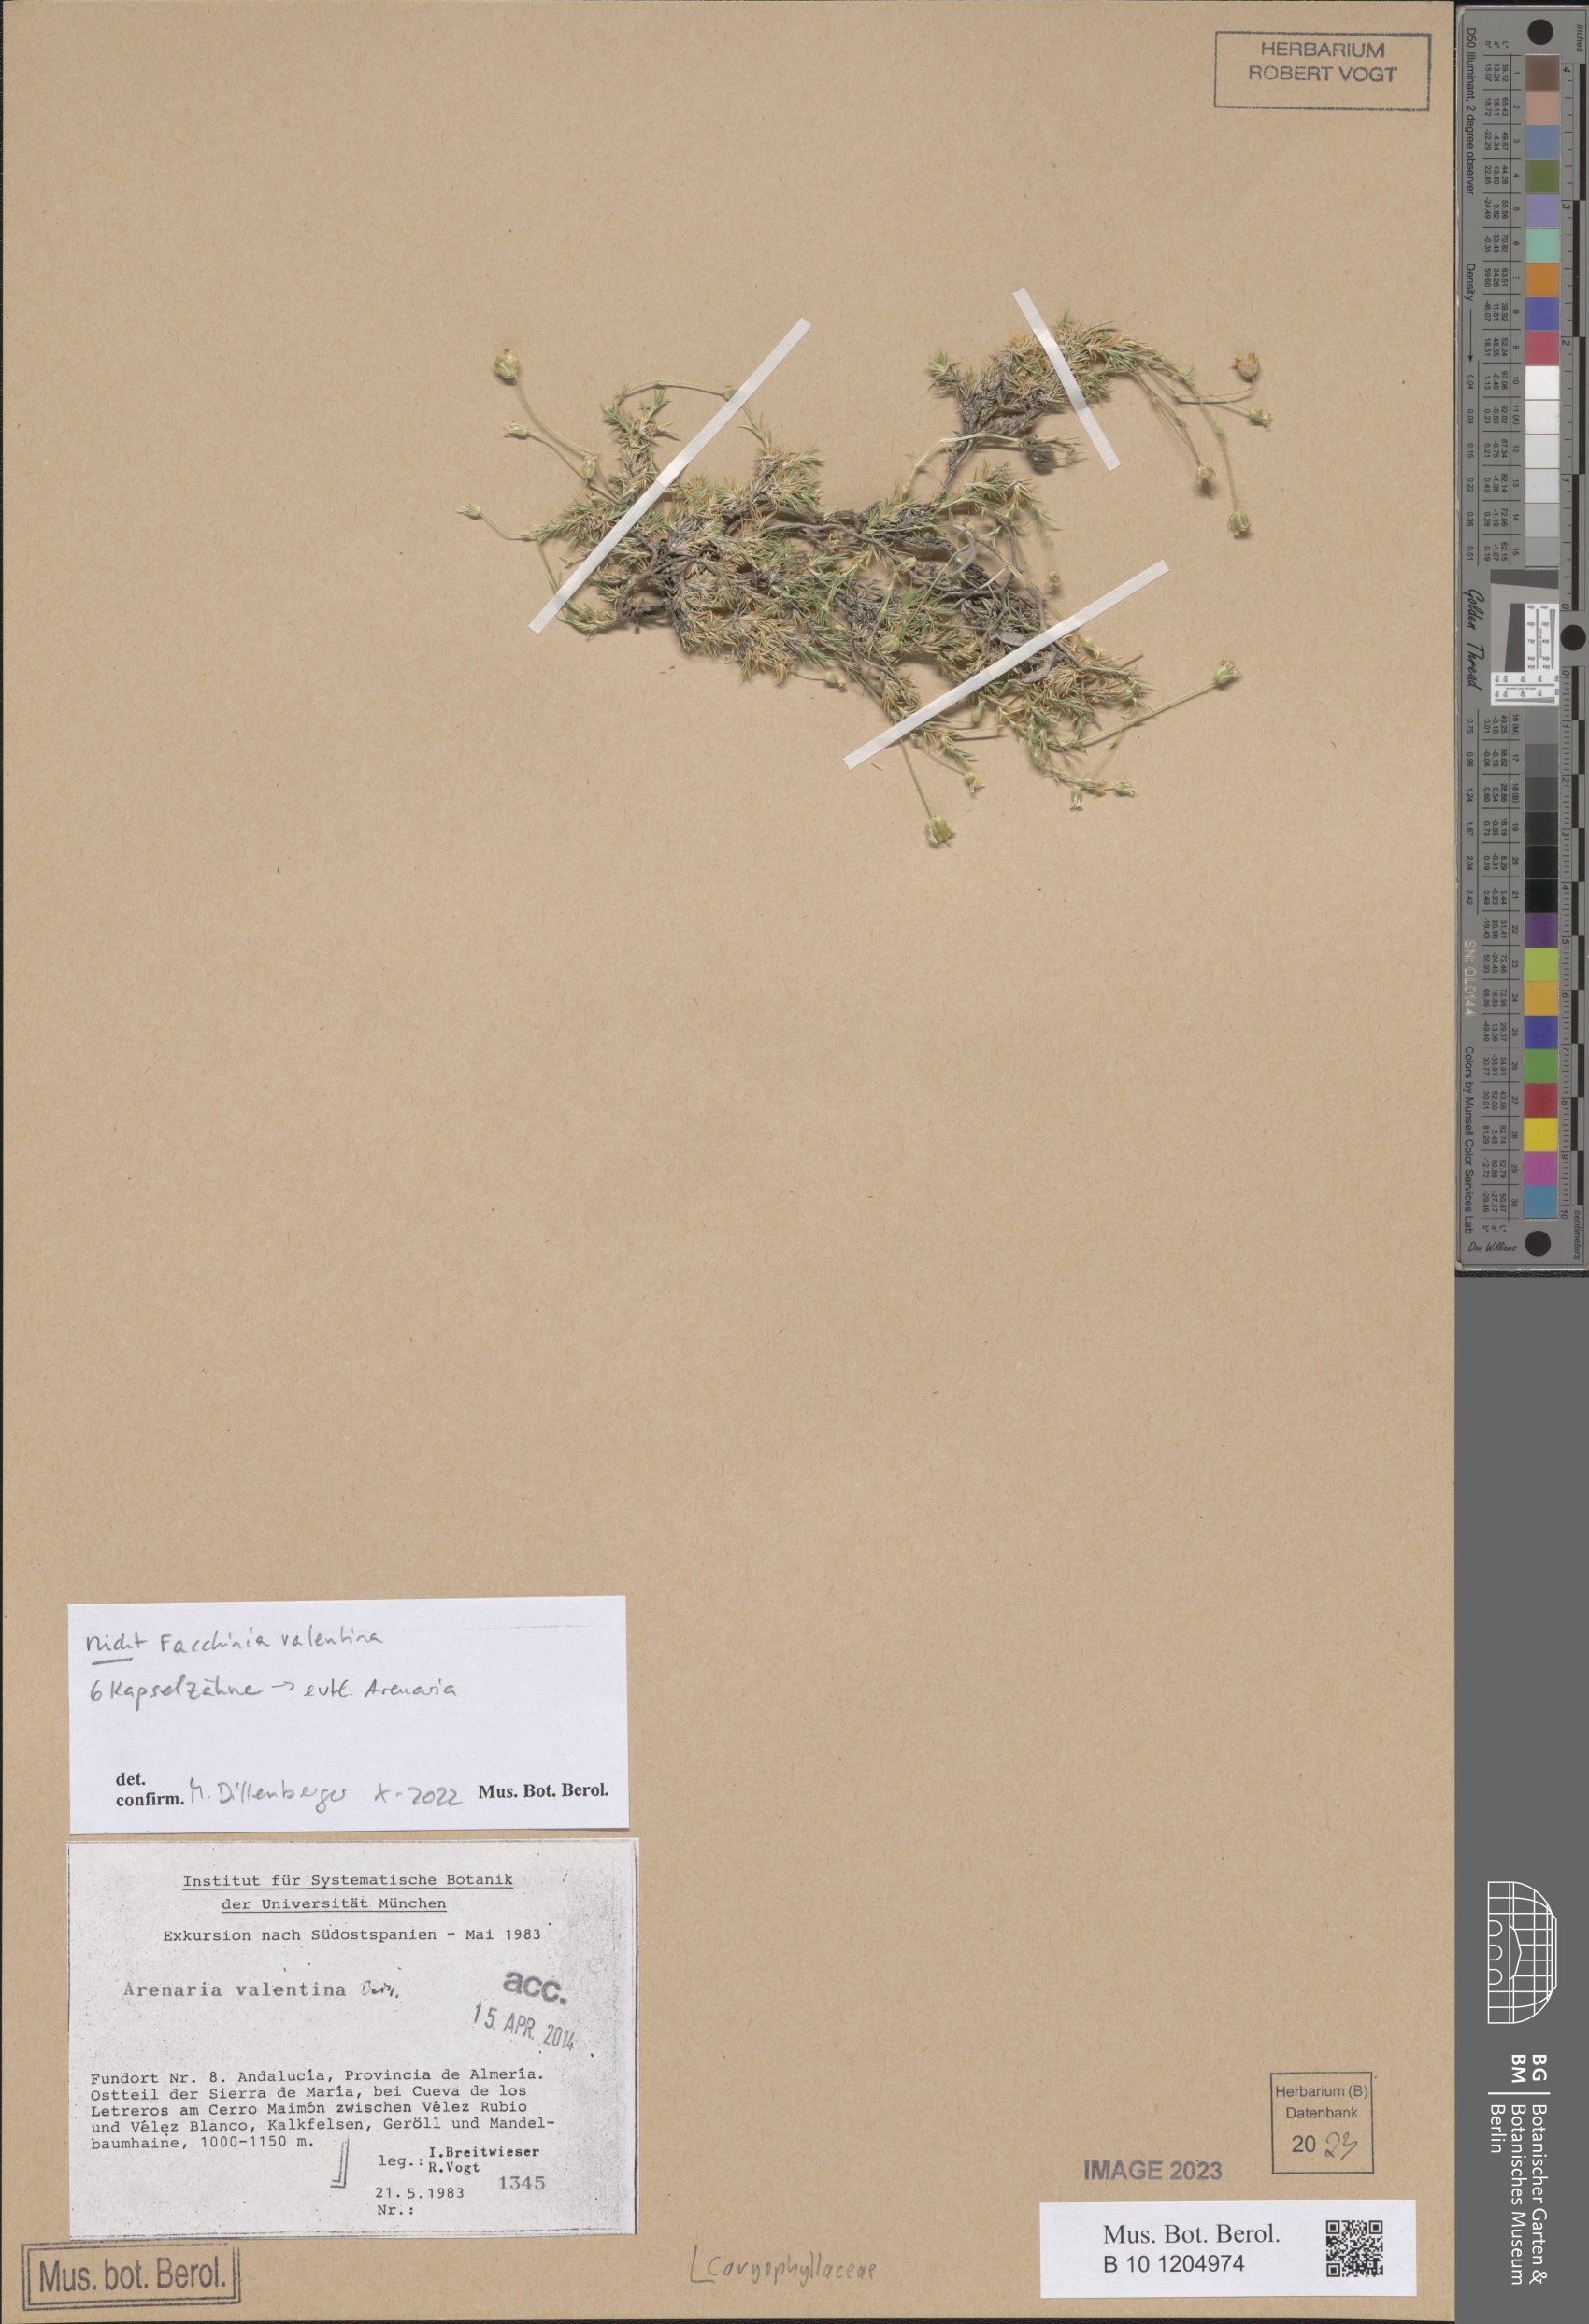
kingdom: Plantae
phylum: Tracheophyta
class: Magnoliopsida
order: Caryophyllales
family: Caryophyllaceae
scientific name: Caryophyllaceae
